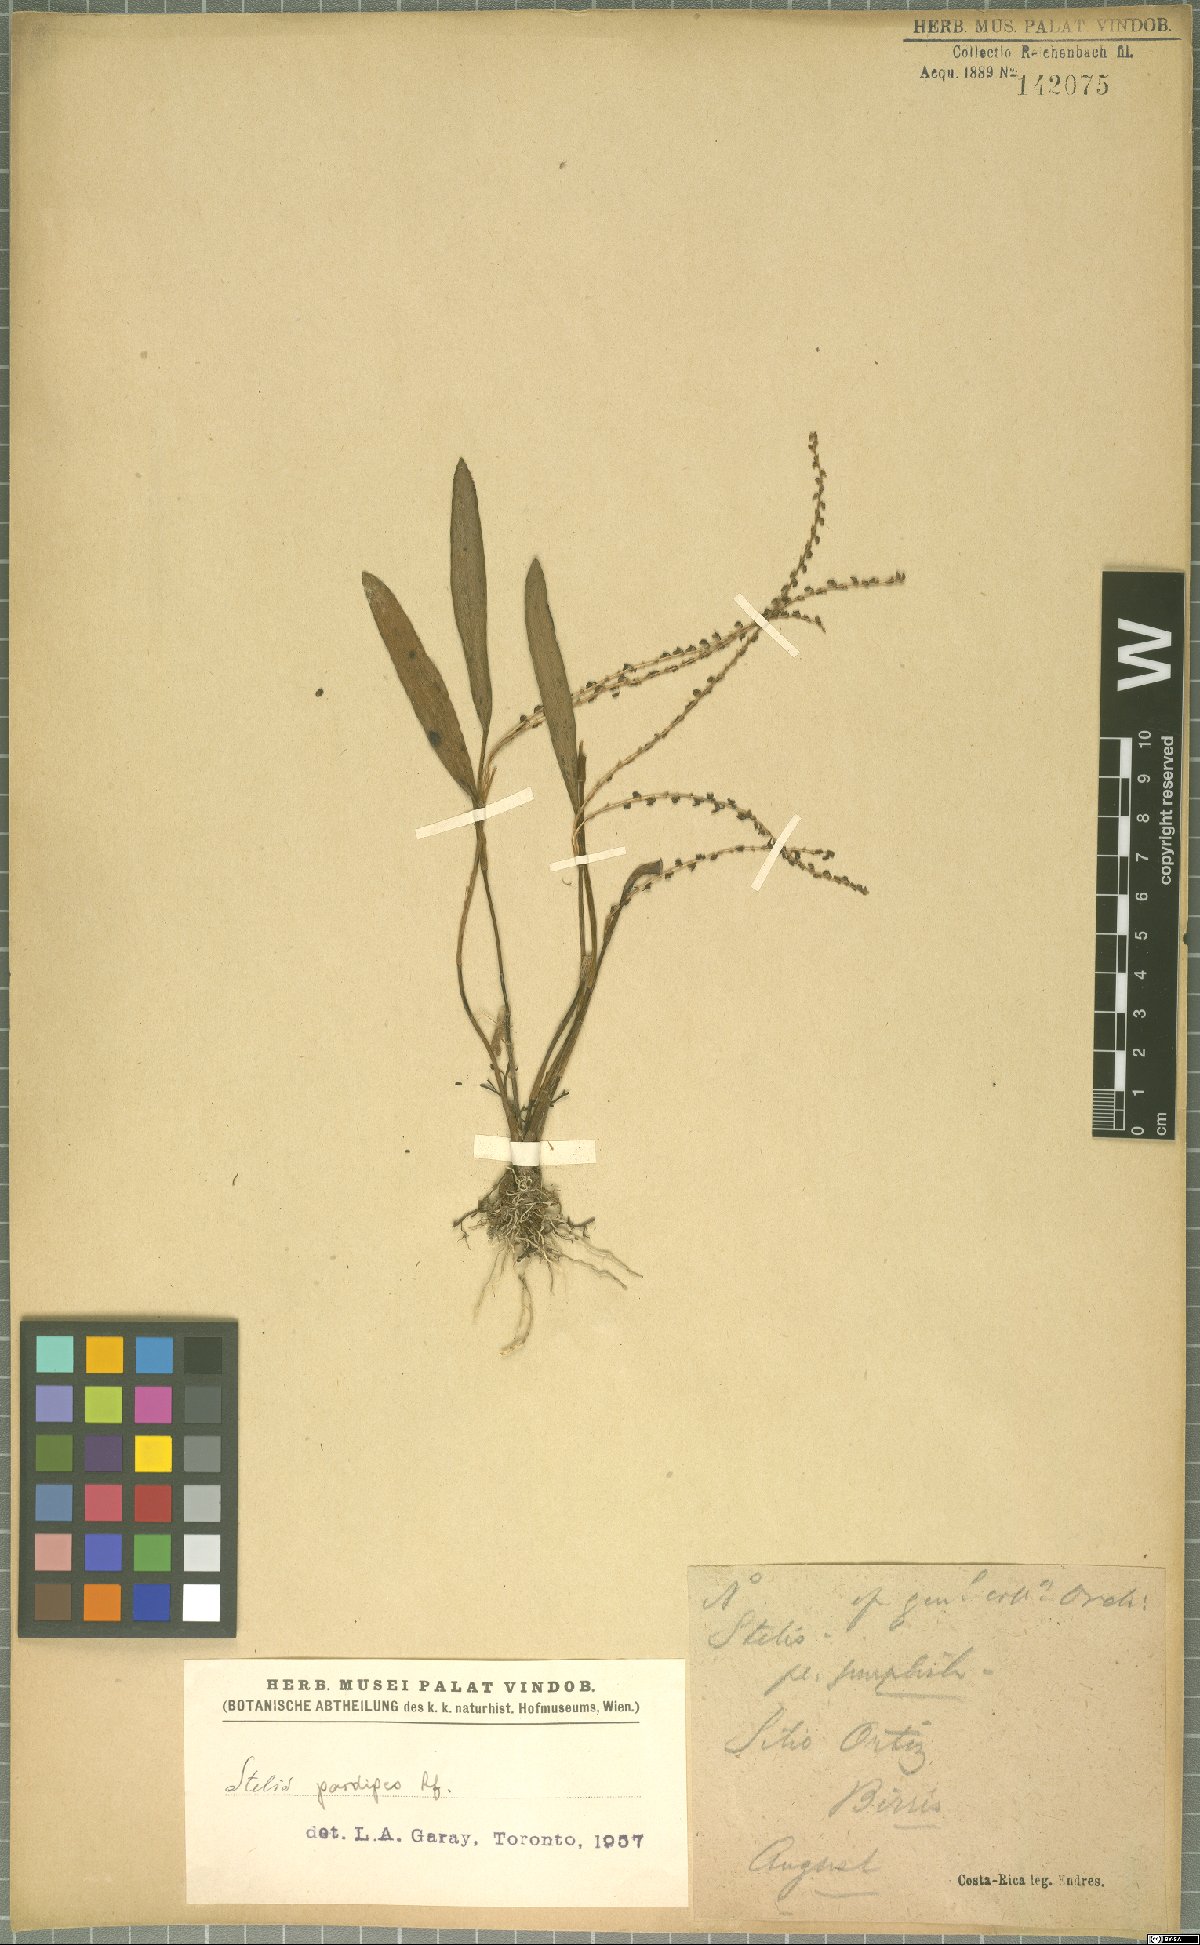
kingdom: Plantae
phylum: Tracheophyta
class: Liliopsida
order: Asparagales
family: Orchidaceae
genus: Stelis
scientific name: Stelis pardipes
